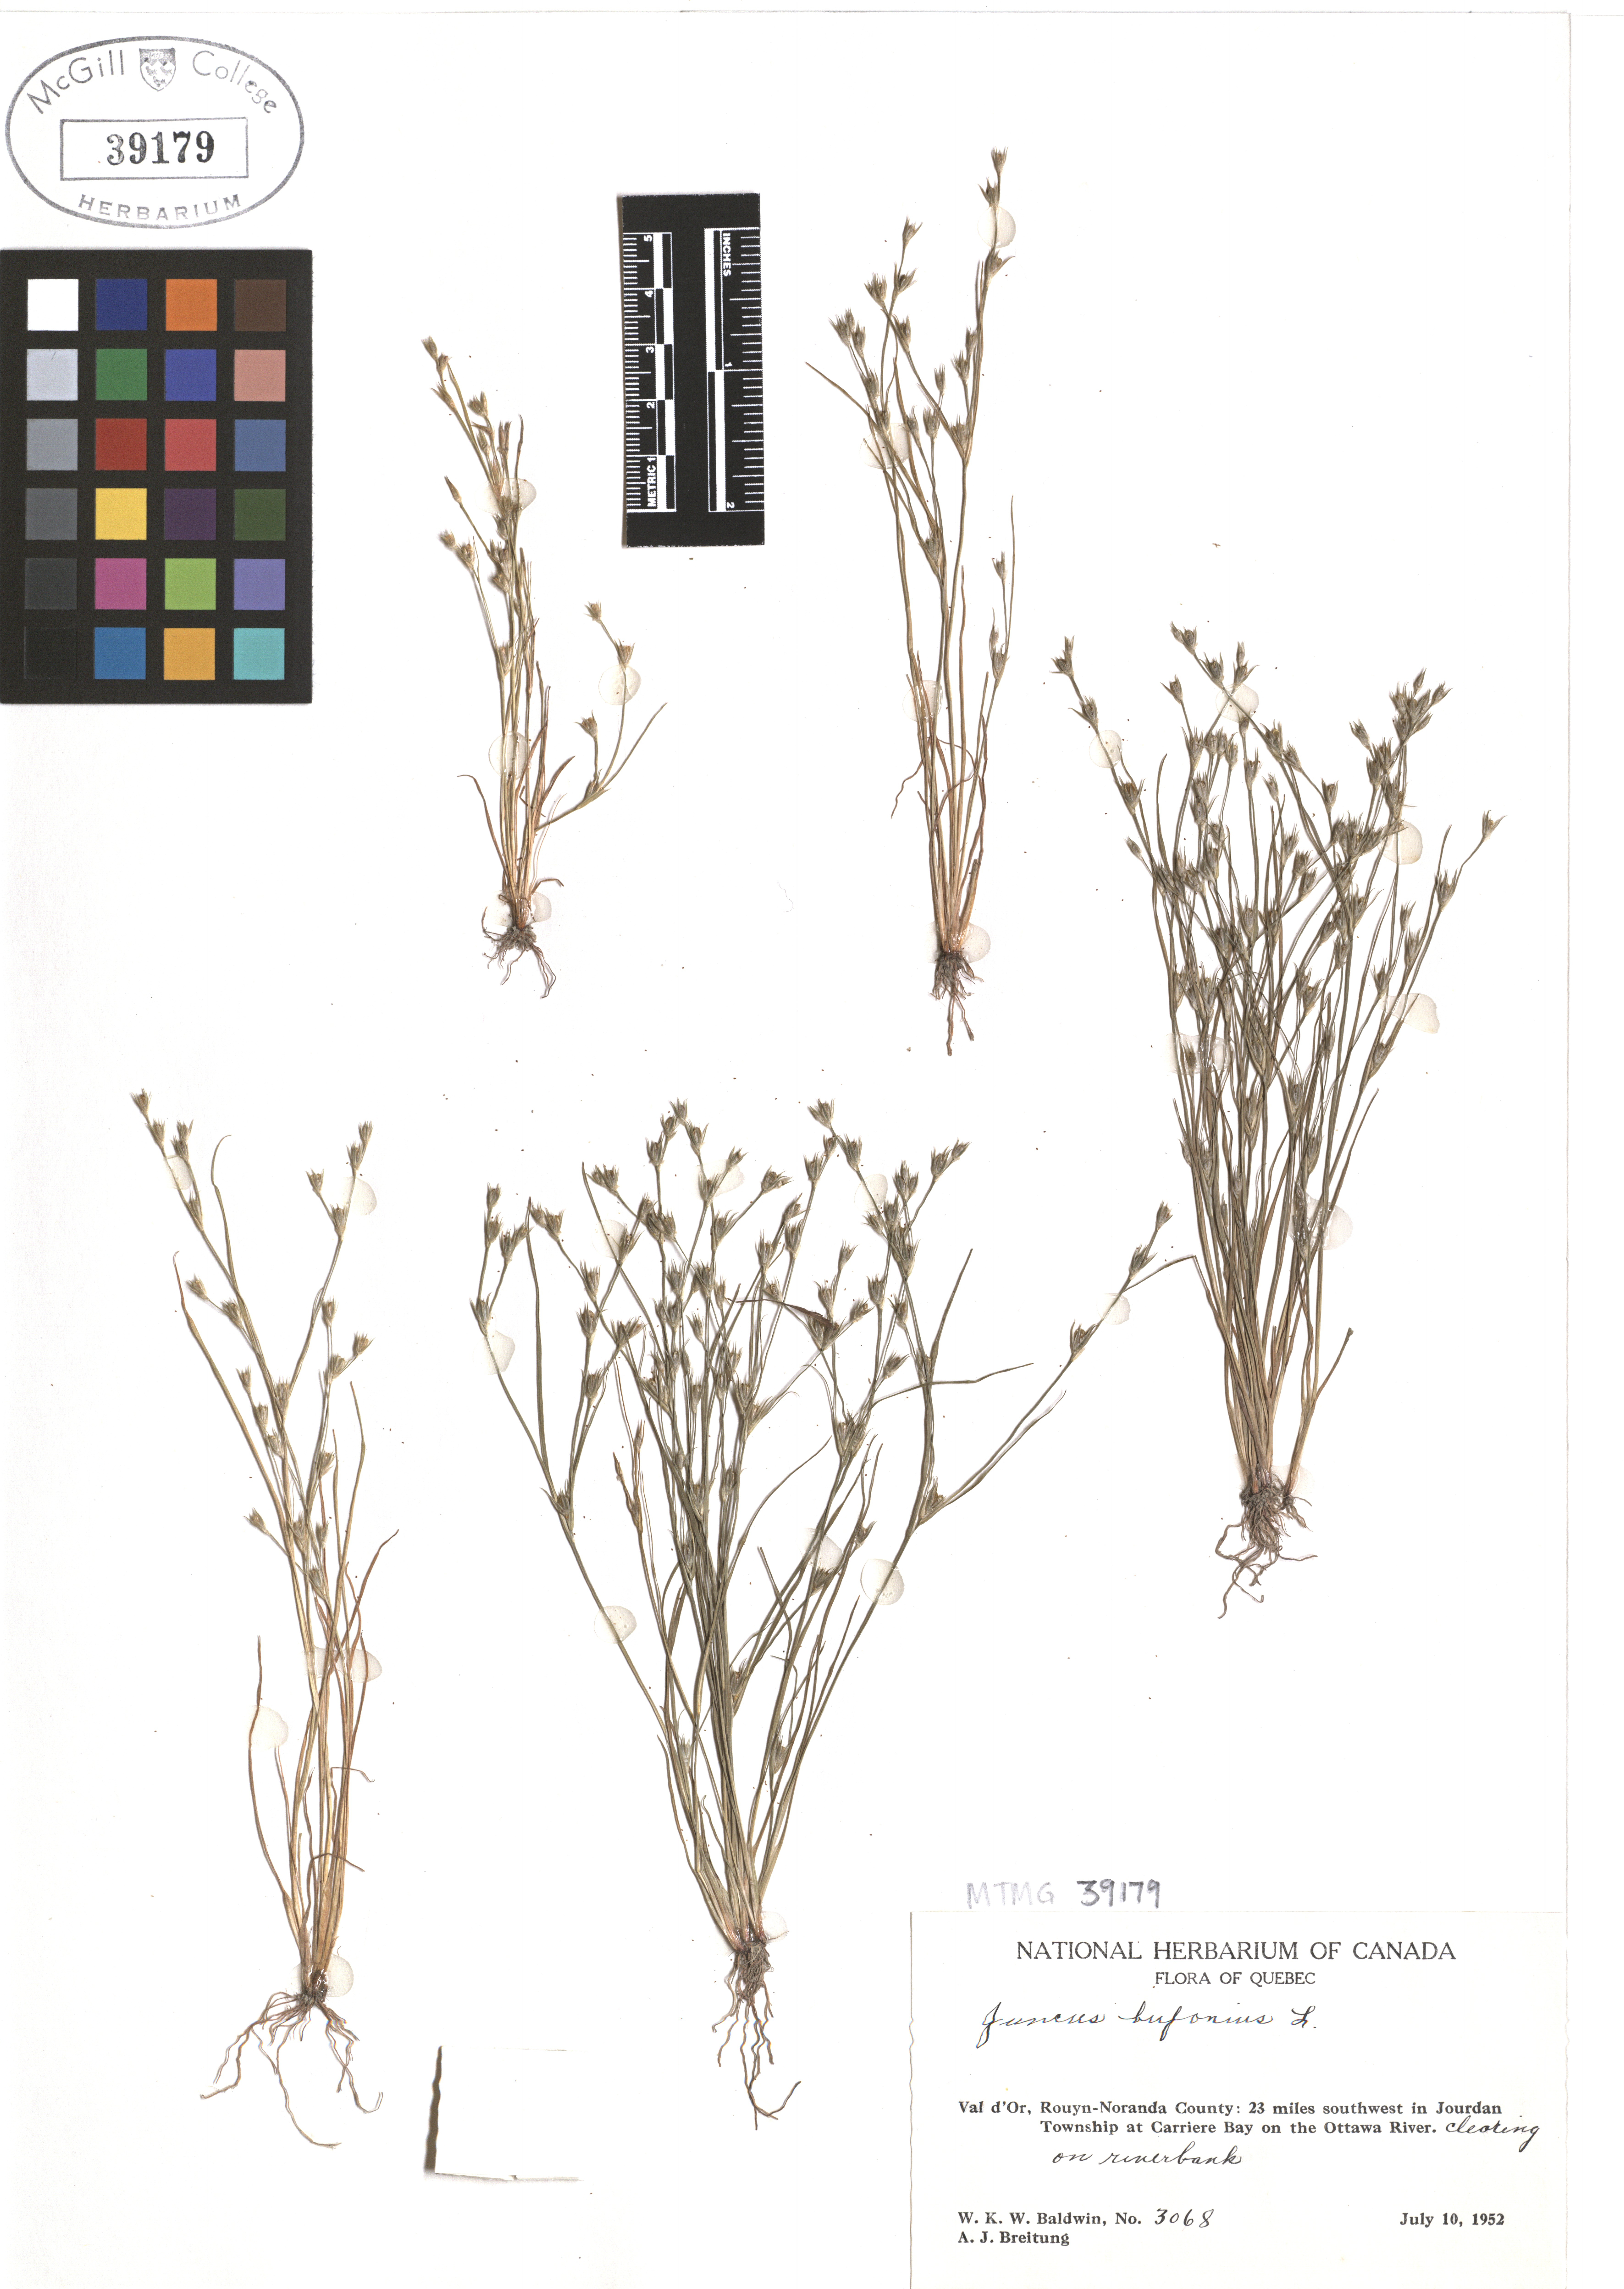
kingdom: Plantae
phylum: Tracheophyta
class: Liliopsida
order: Poales
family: Juncaceae
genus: Juncus
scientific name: Juncus bufonius
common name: Toad rush
